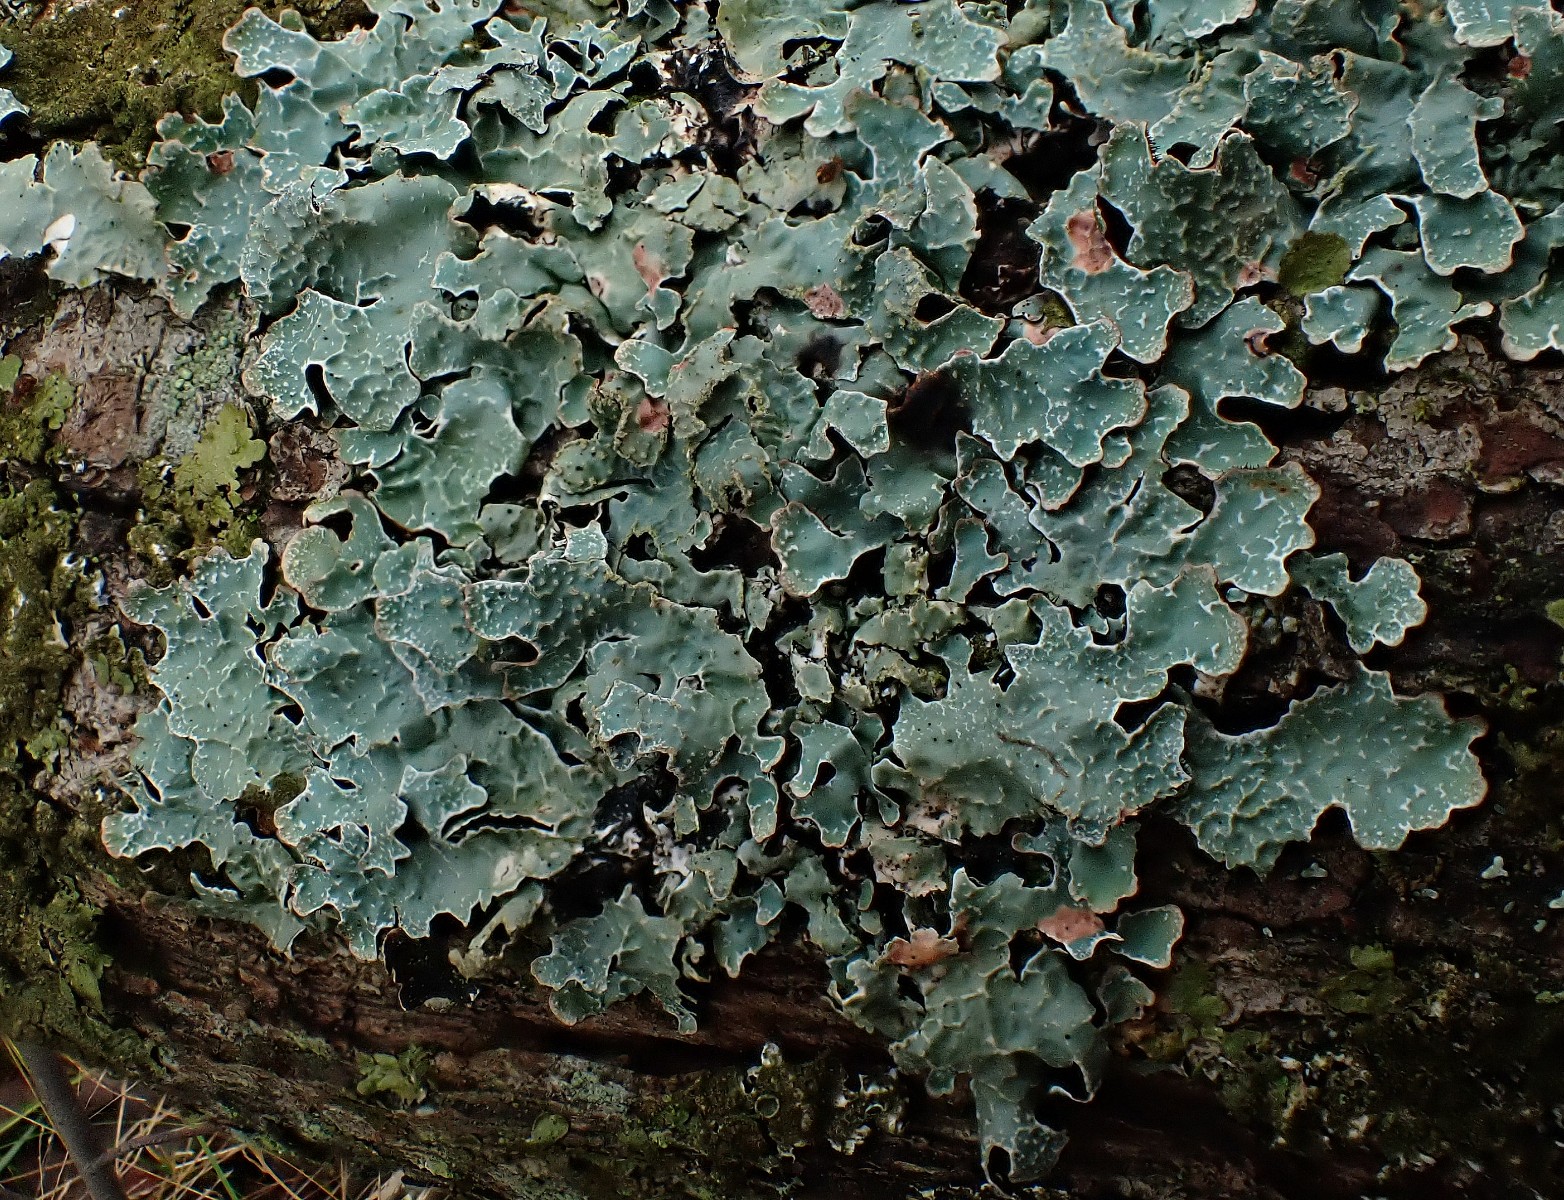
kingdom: Fungi
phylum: Ascomycota
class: Lecanoromycetes
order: Lecanorales
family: Parmeliaceae
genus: Parmelia
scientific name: Parmelia sulcata
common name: rynket skållav
